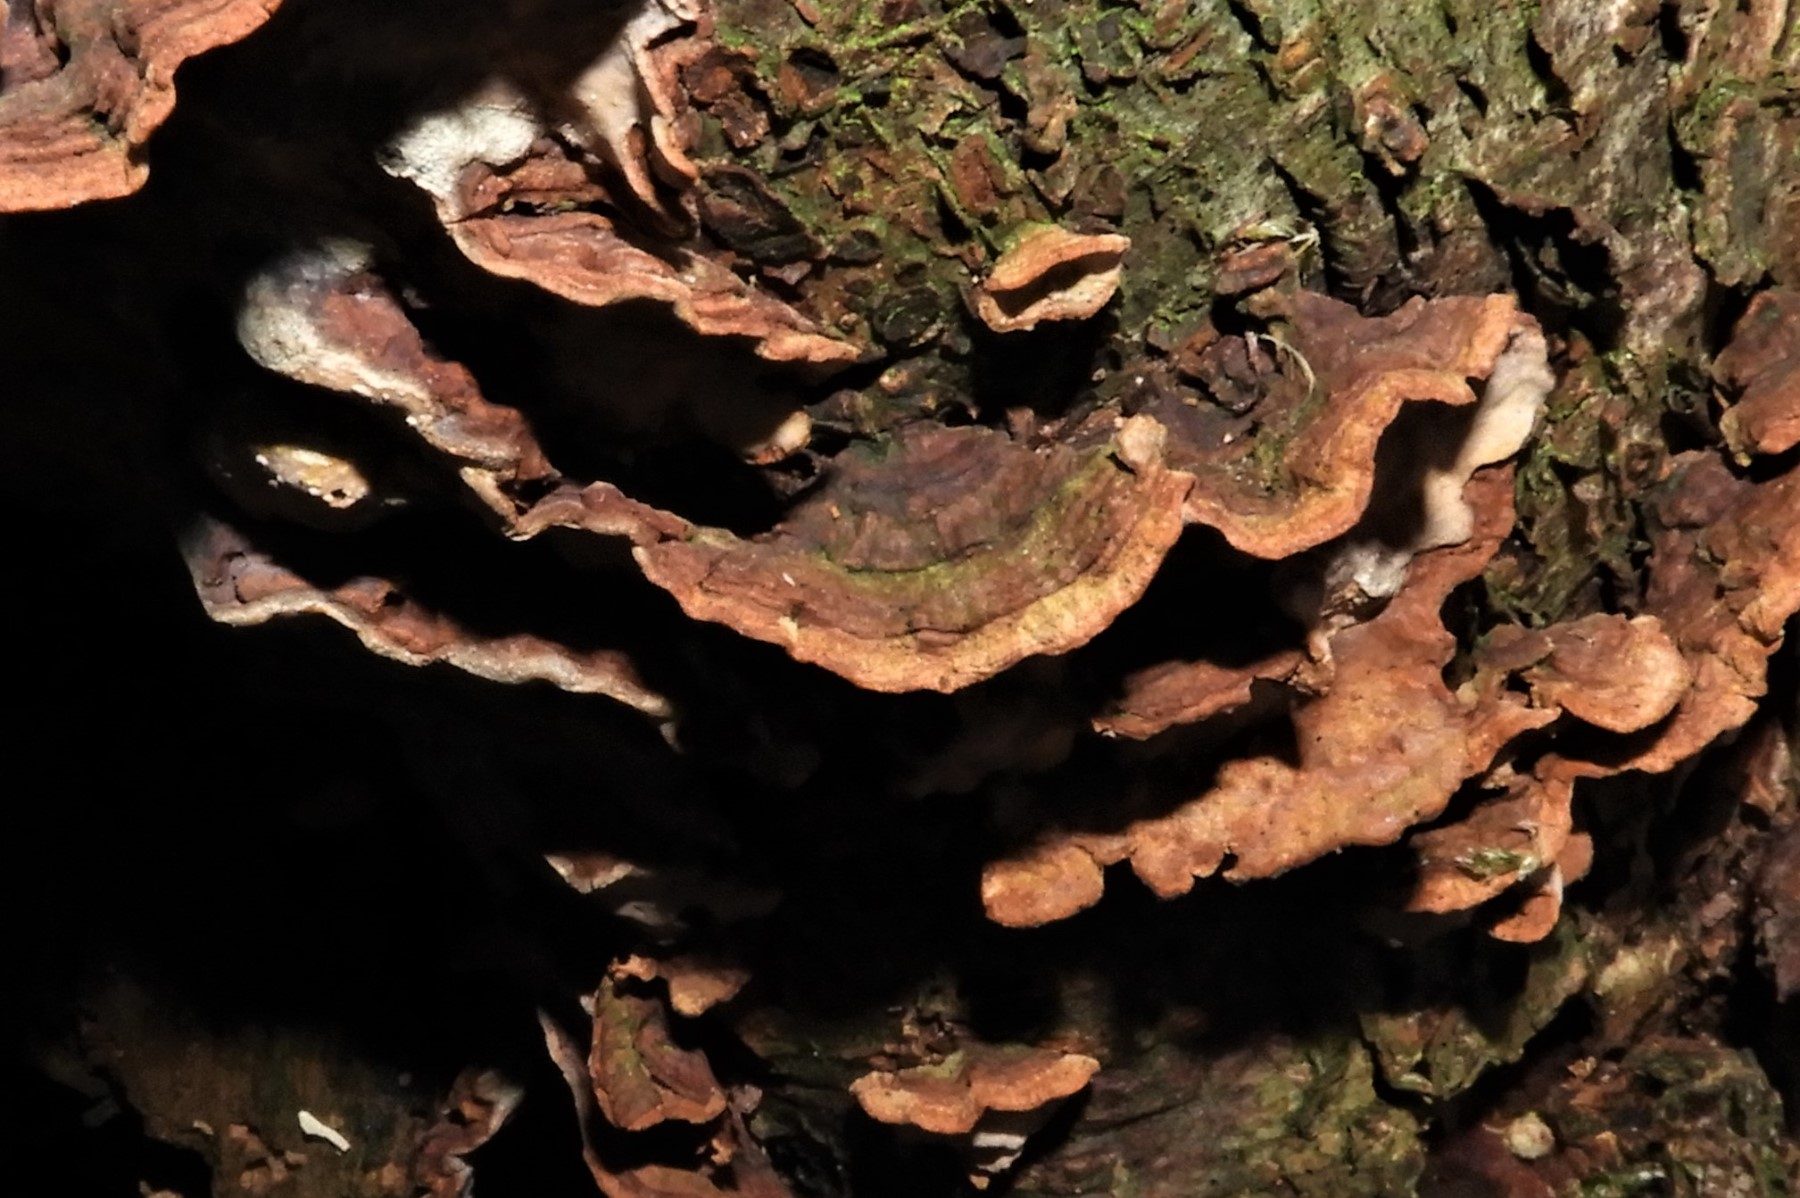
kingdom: Fungi
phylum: Basidiomycota
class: Agaricomycetes
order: Russulales
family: Stereaceae
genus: Stereum
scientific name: Stereum rugosum
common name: rynket lædersvamp
